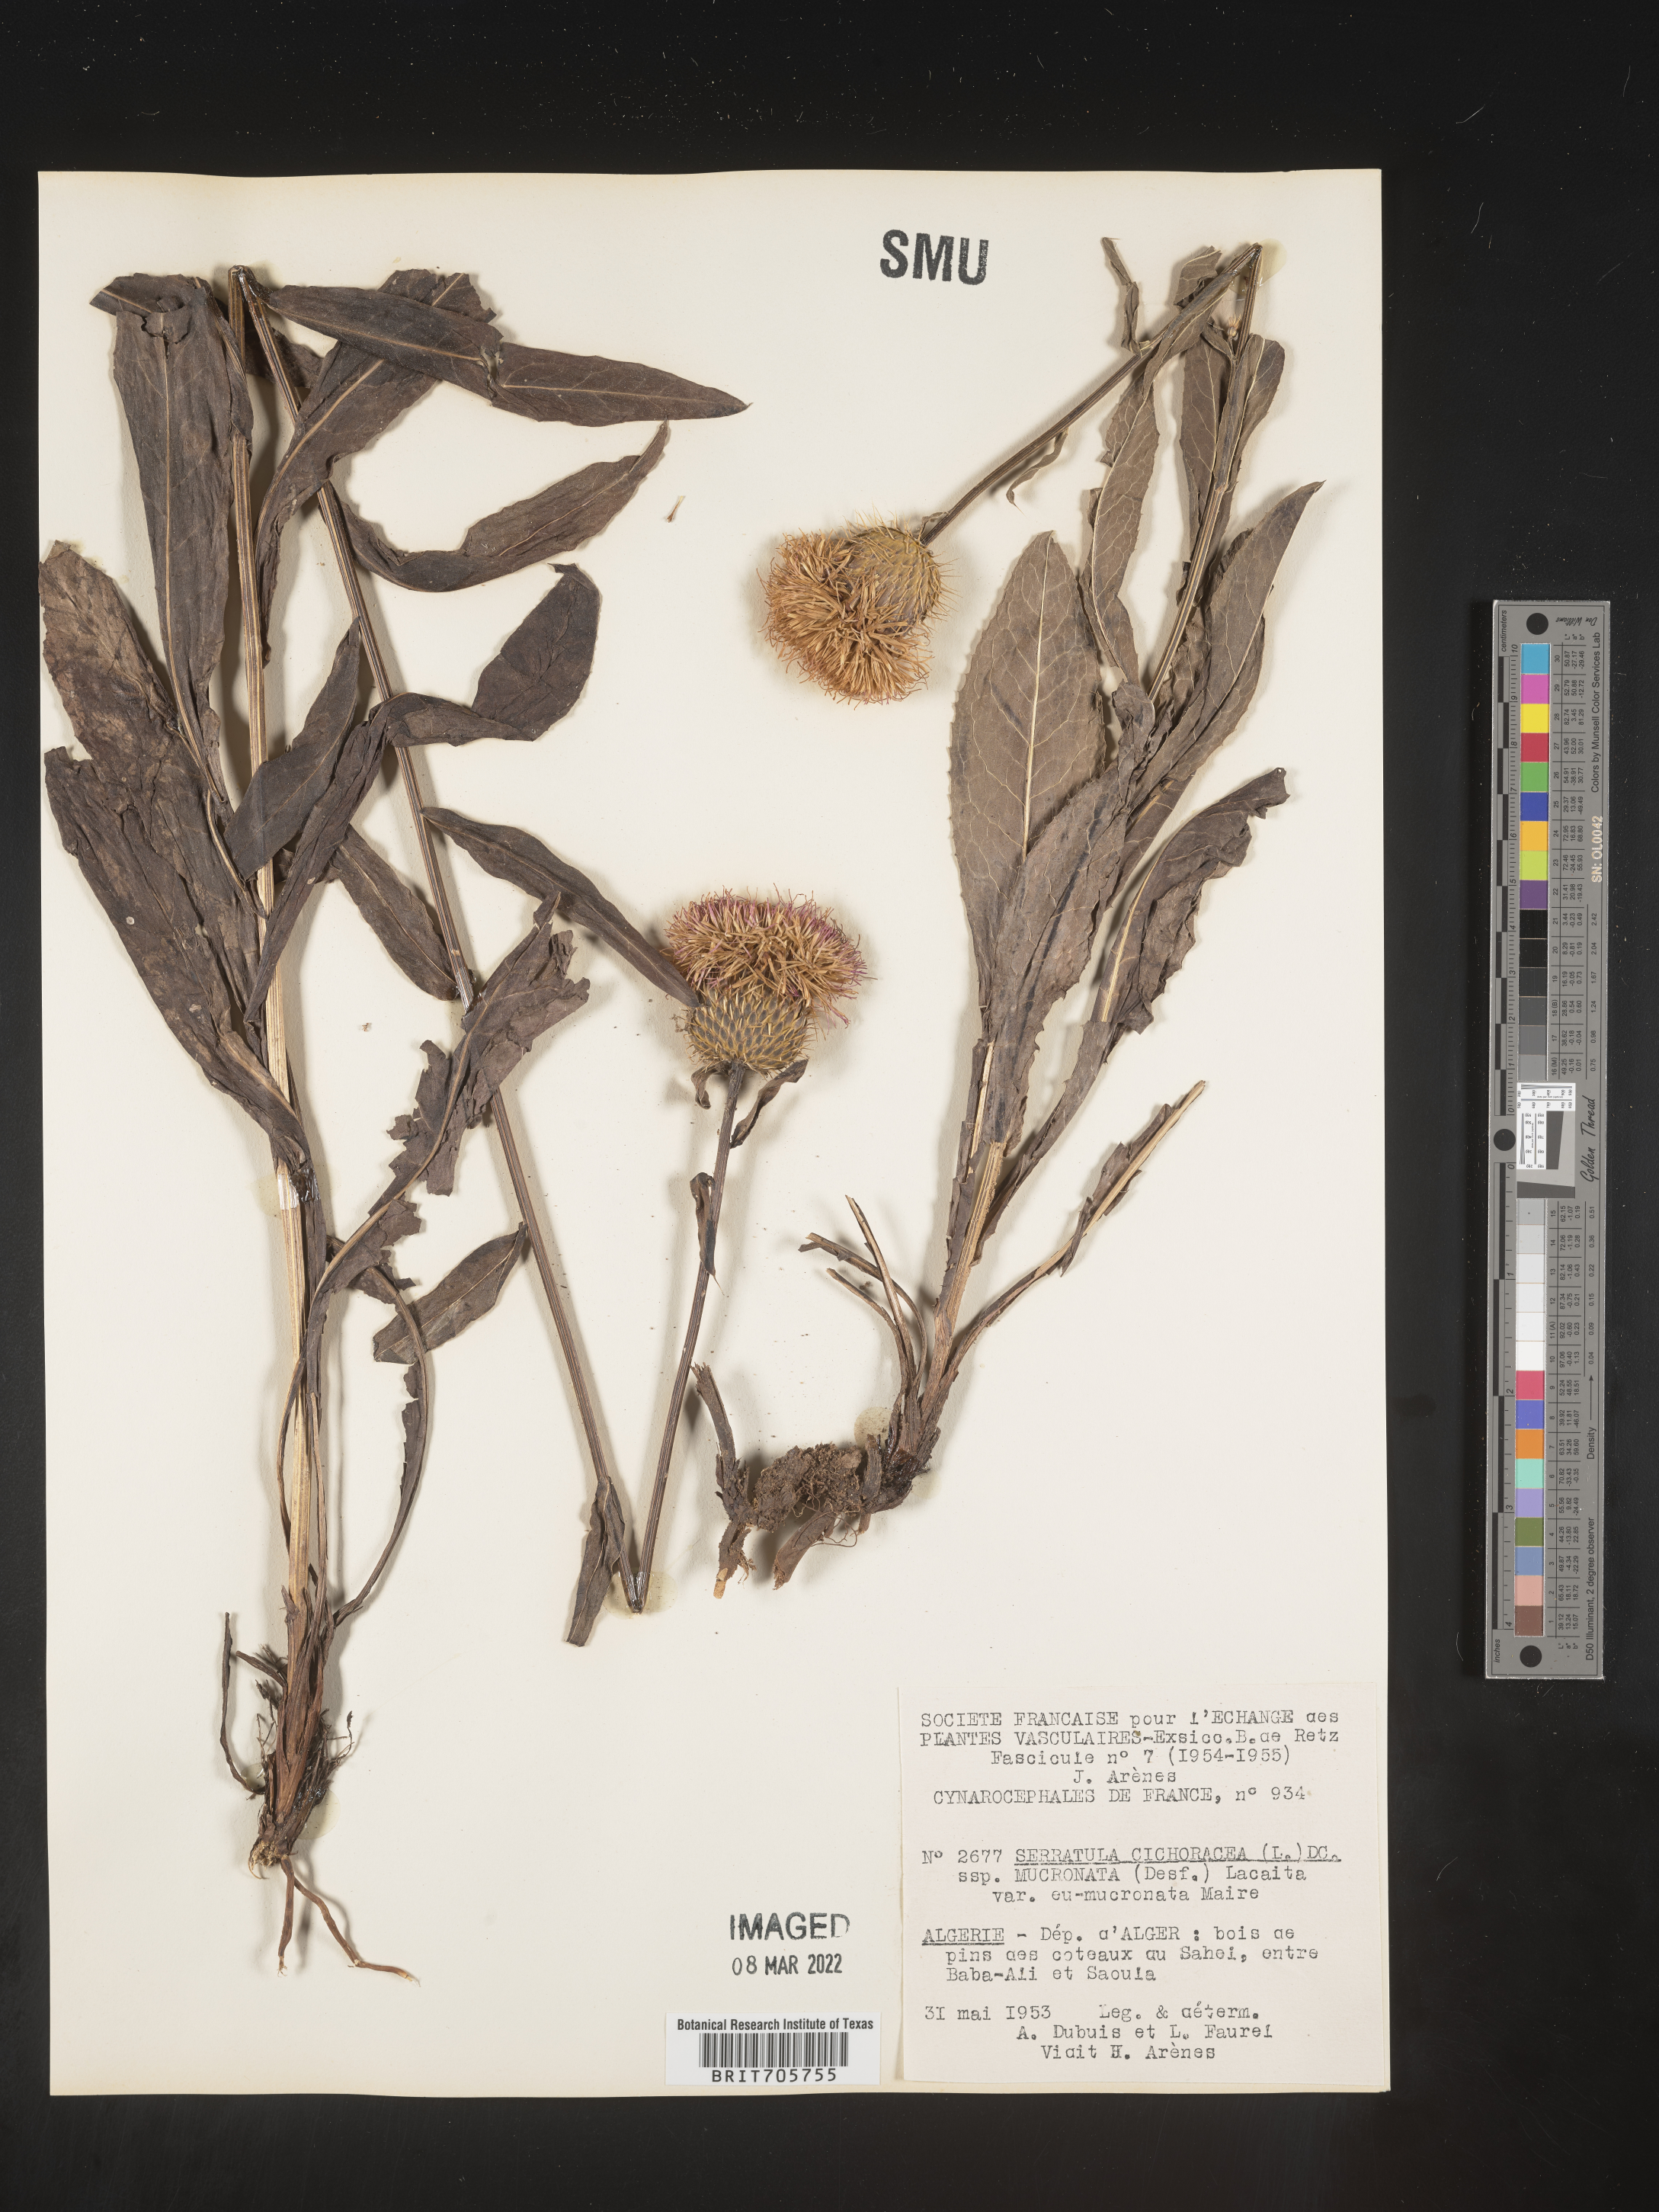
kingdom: Plantae
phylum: Tracheophyta
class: Magnoliopsida
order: Asterales
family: Asteraceae
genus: Serratula
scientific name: Serratula
